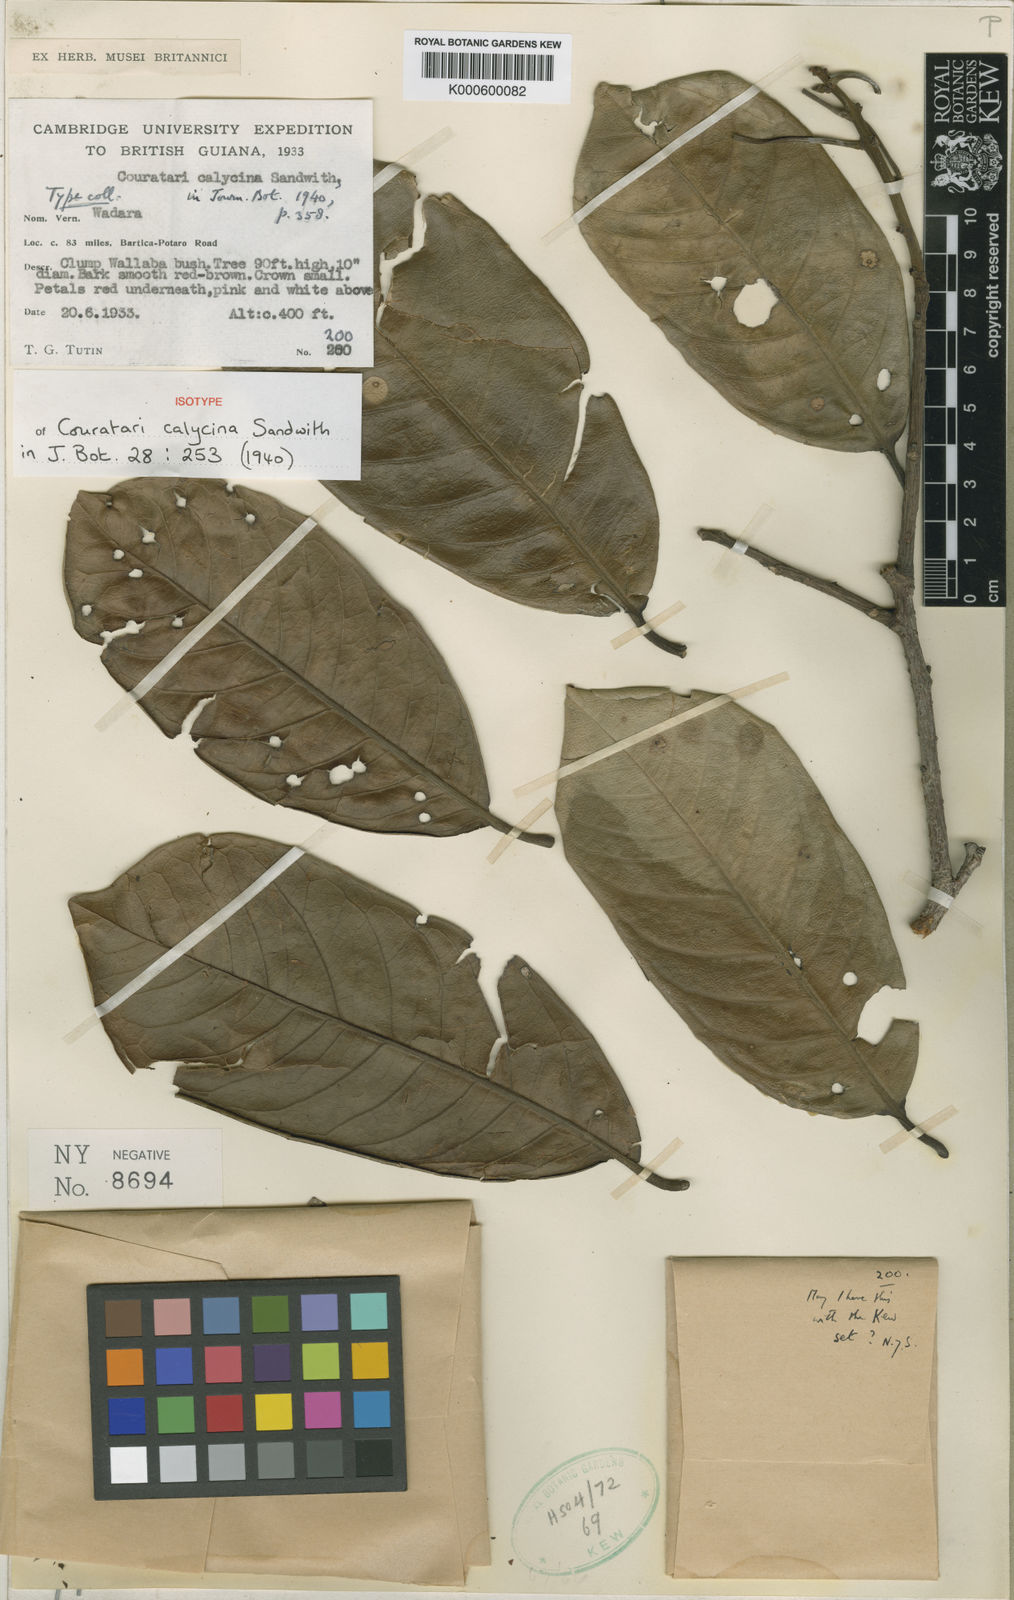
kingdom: Plantae
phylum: Tracheophyta
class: Magnoliopsida
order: Ericales
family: Lecythidaceae
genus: Couratari
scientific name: Couratari calycina
